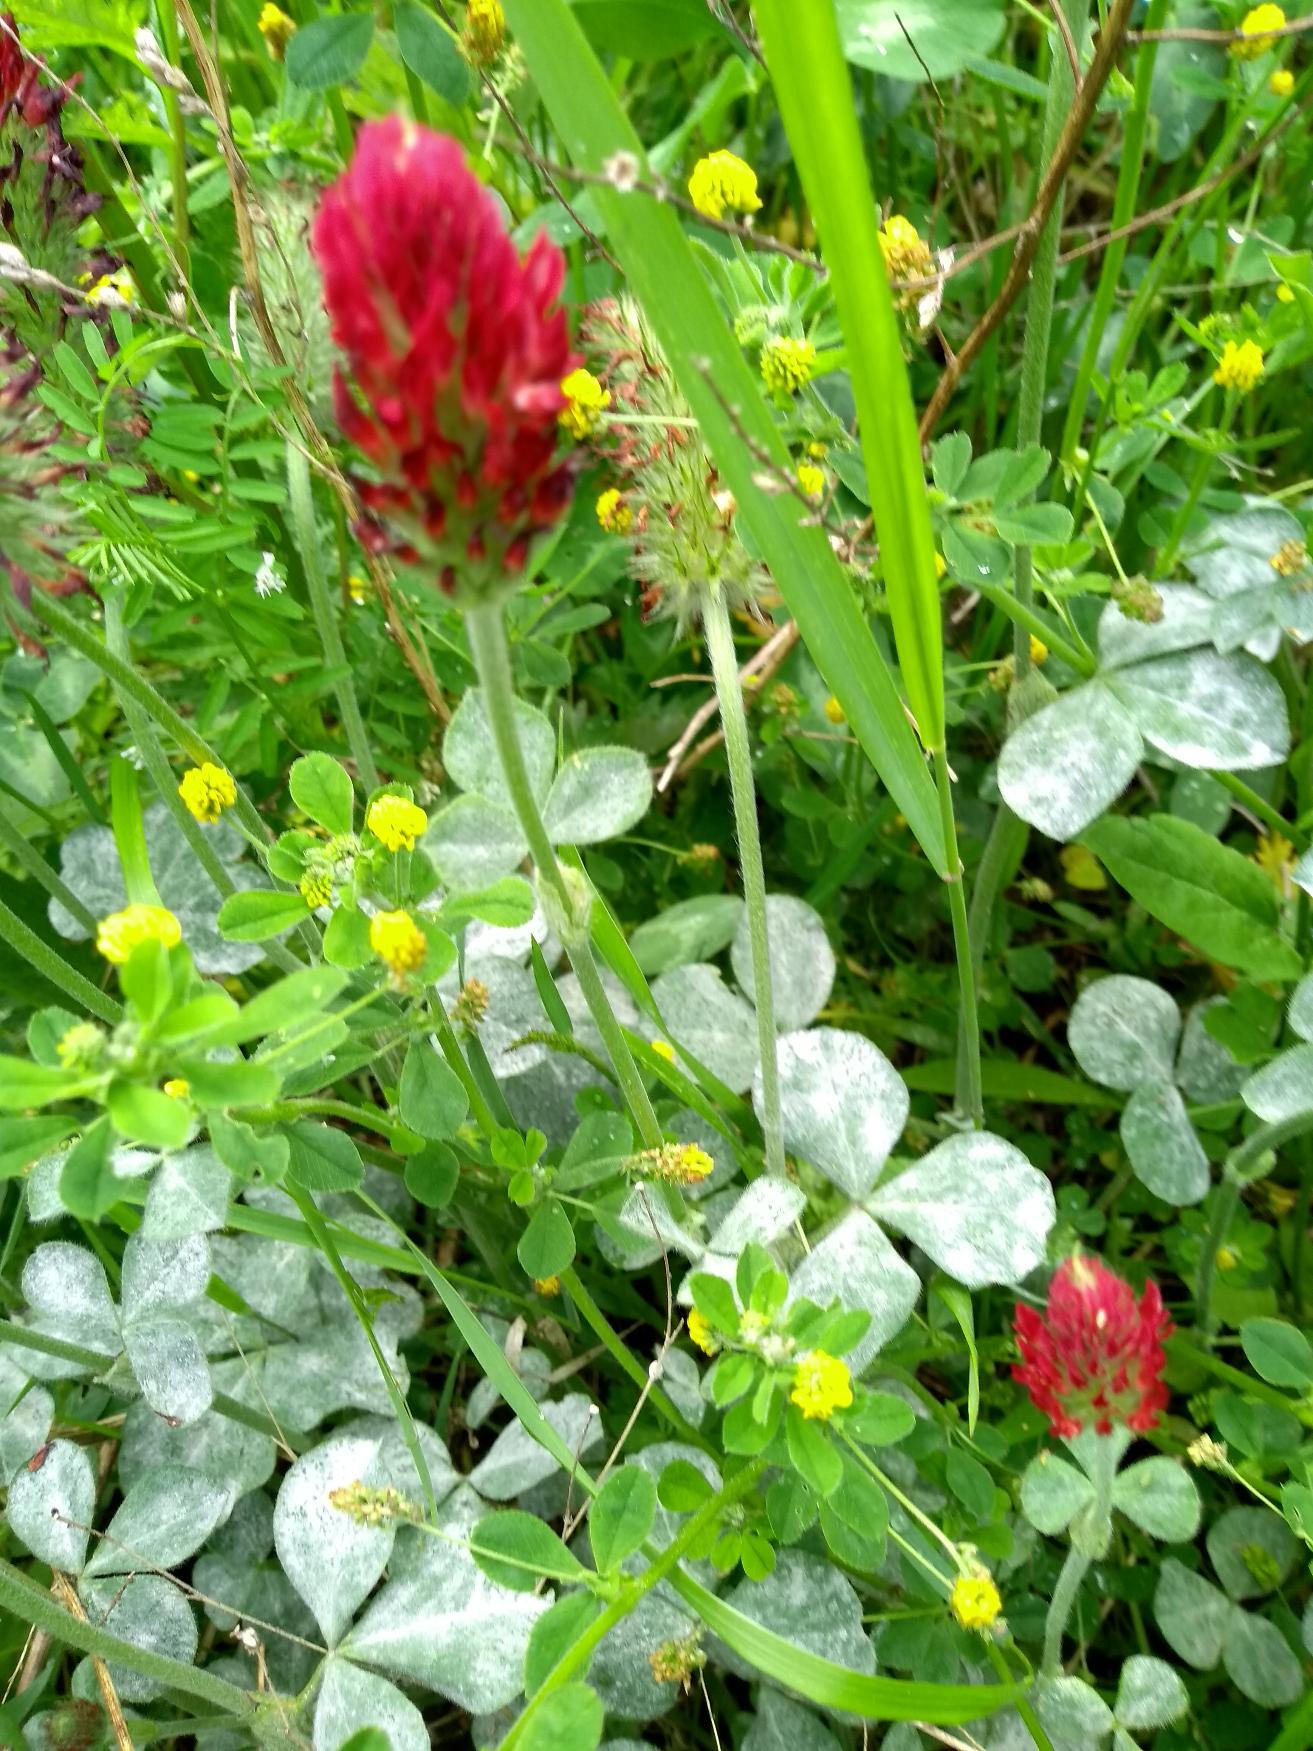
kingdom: Plantae
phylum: Tracheophyta
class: Magnoliopsida
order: Fabales
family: Fabaceae
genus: Trifolium
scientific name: Trifolium incarnatum
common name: Blod-kløver
